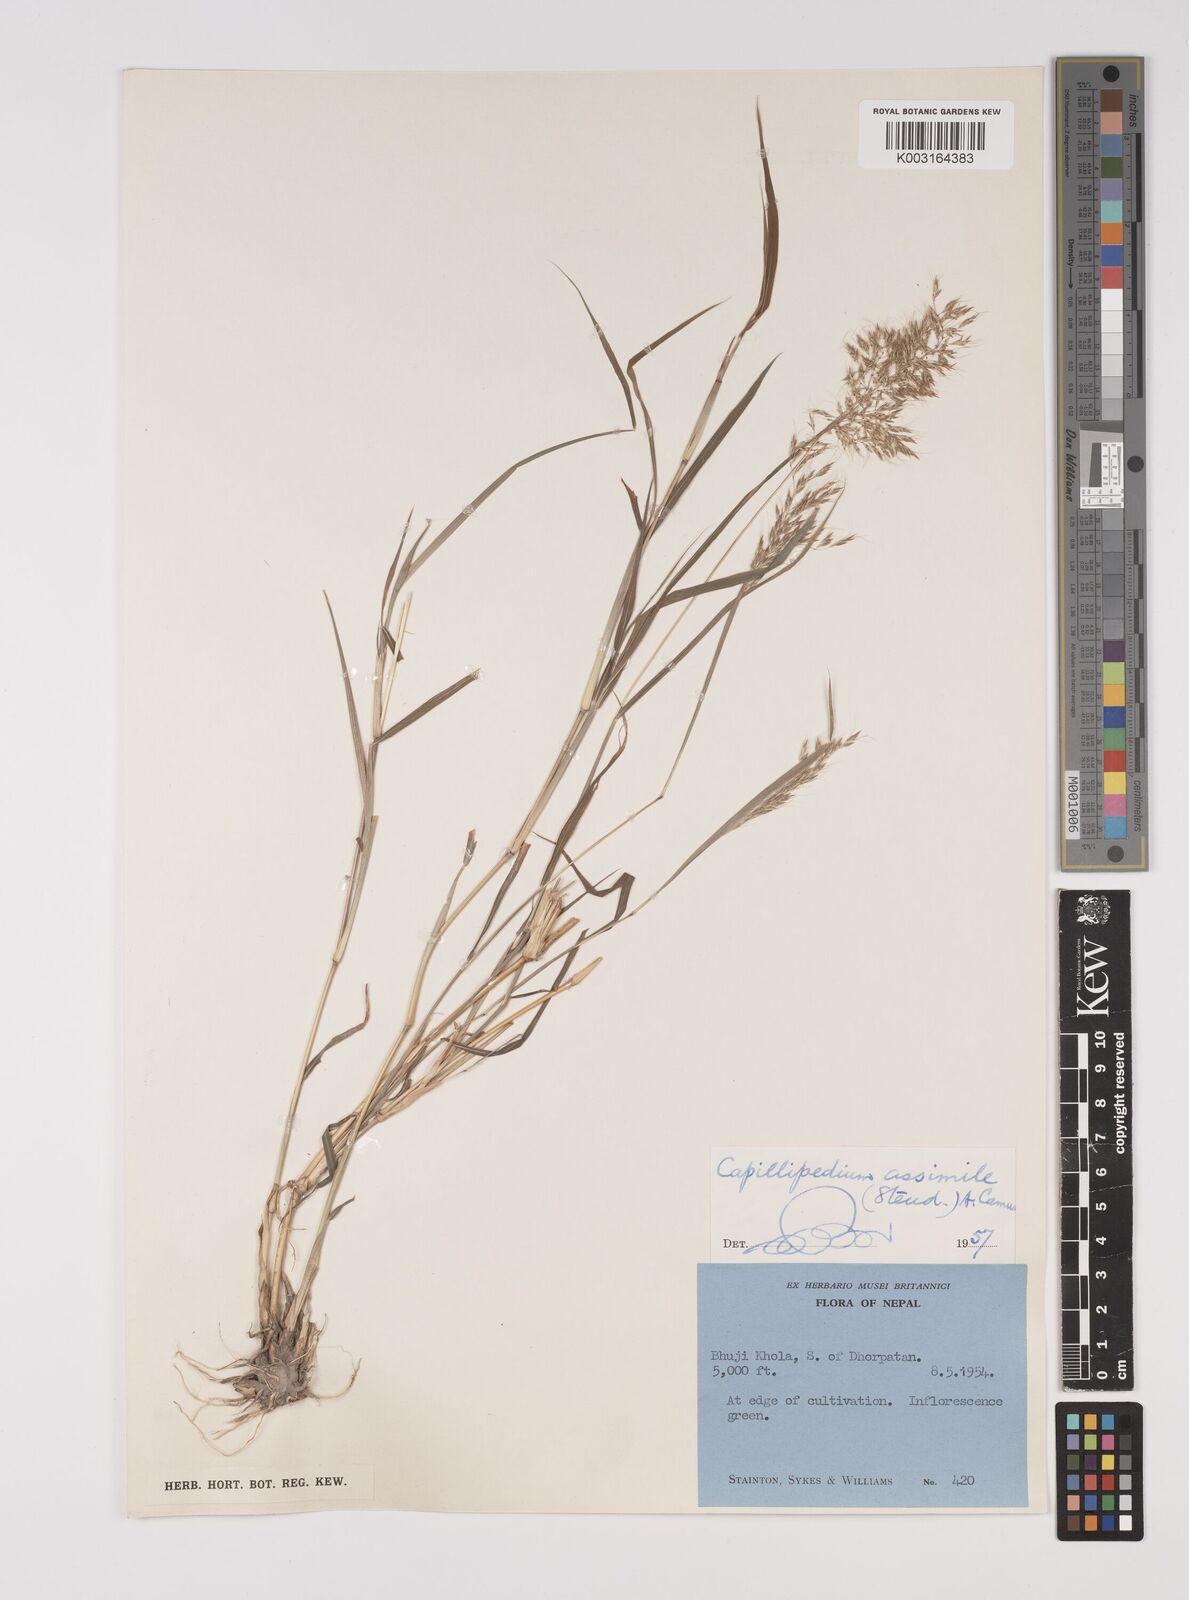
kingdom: Plantae
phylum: Tracheophyta
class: Liliopsida
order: Poales
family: Poaceae
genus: Capillipedium
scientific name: Capillipedium assimile
